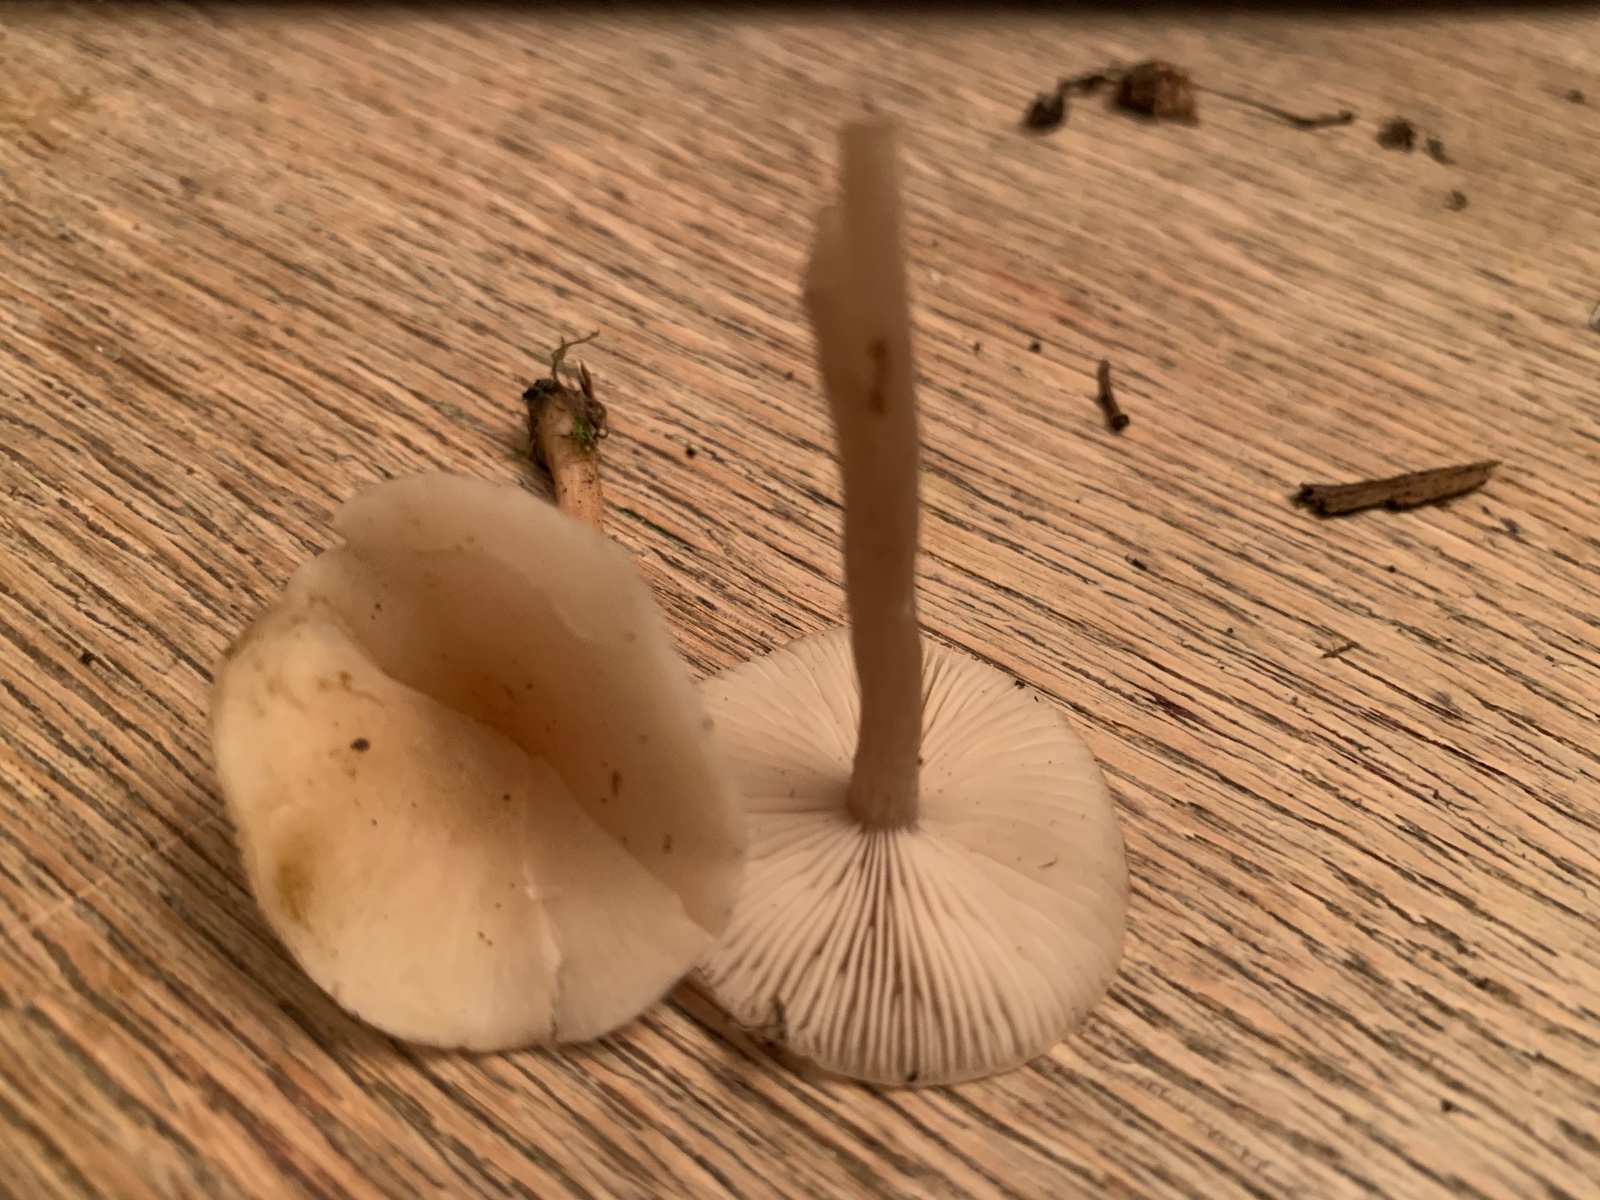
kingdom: Fungi
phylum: Basidiomycota
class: Agaricomycetes
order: Agaricales
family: Tricholomataceae
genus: Clitocybe
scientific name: Clitocybe fragrans
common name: vellugtende tragthat
